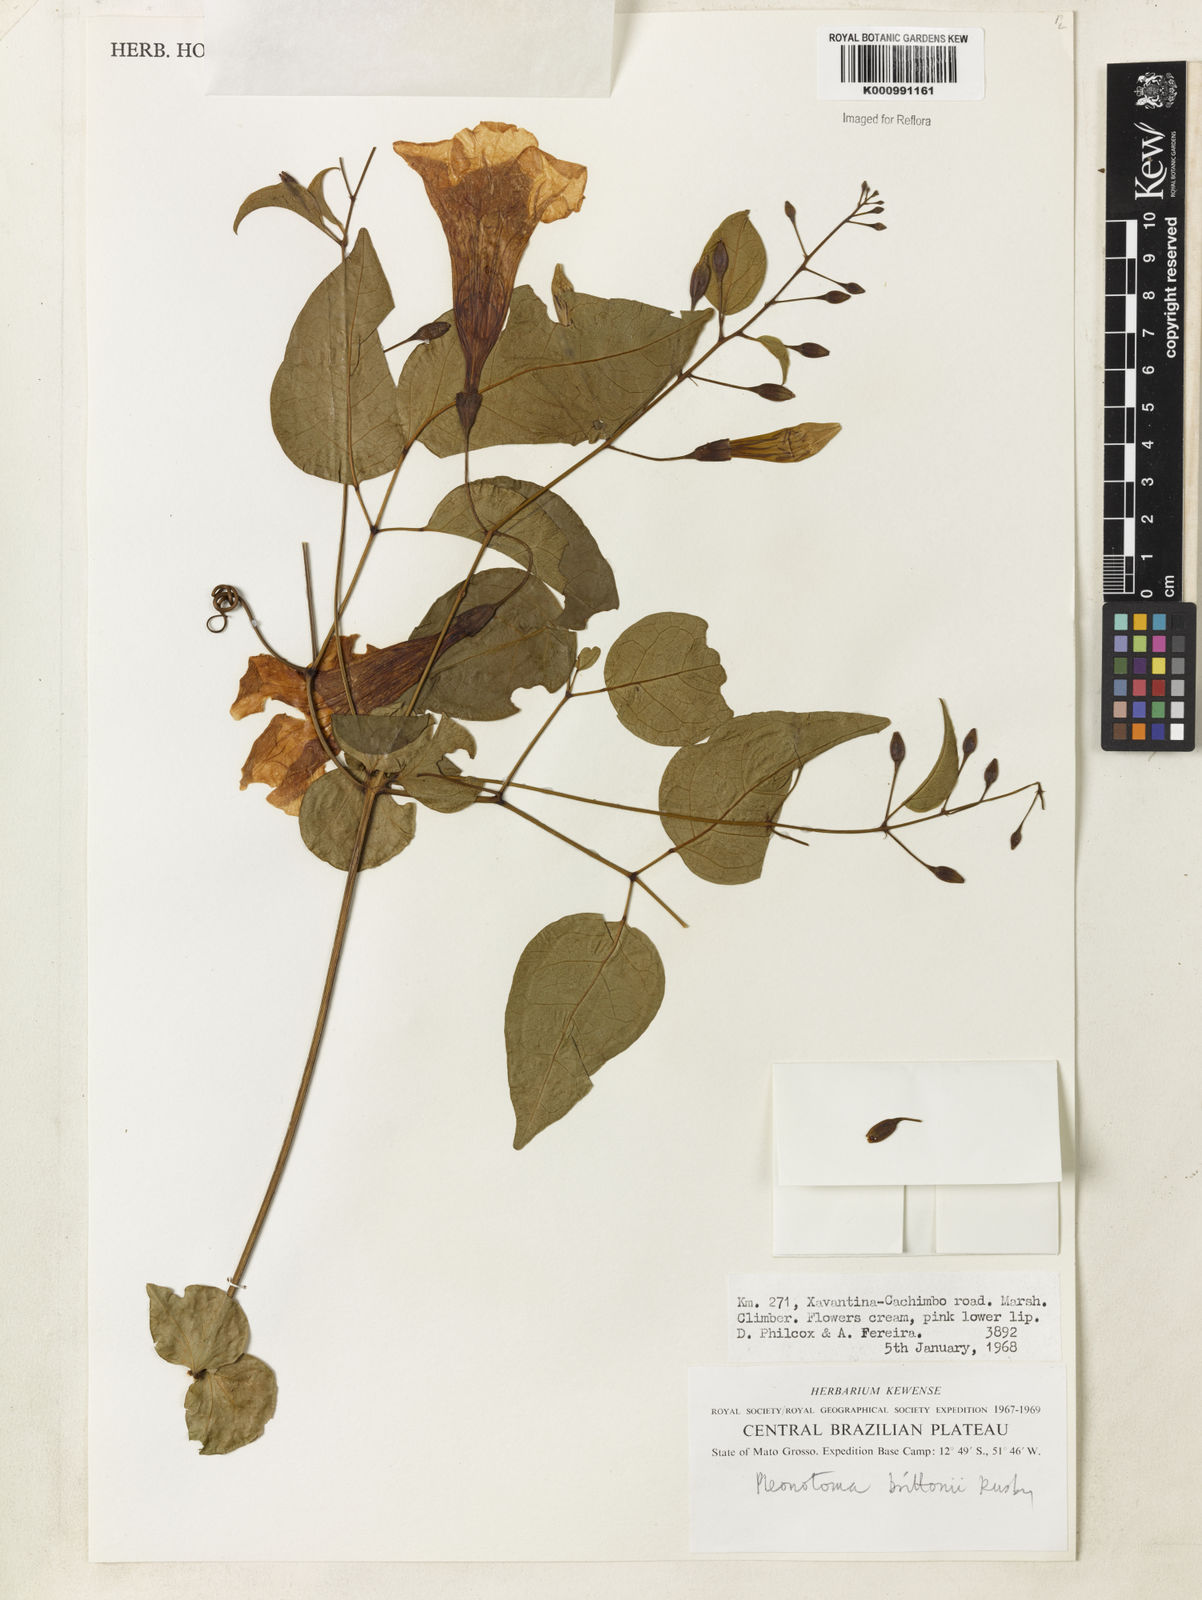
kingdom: Plantae
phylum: Tracheophyta
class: Magnoliopsida
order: Lamiales
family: Bignoniaceae
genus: Pleonotoma
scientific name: Pleonotoma jasminifolia
